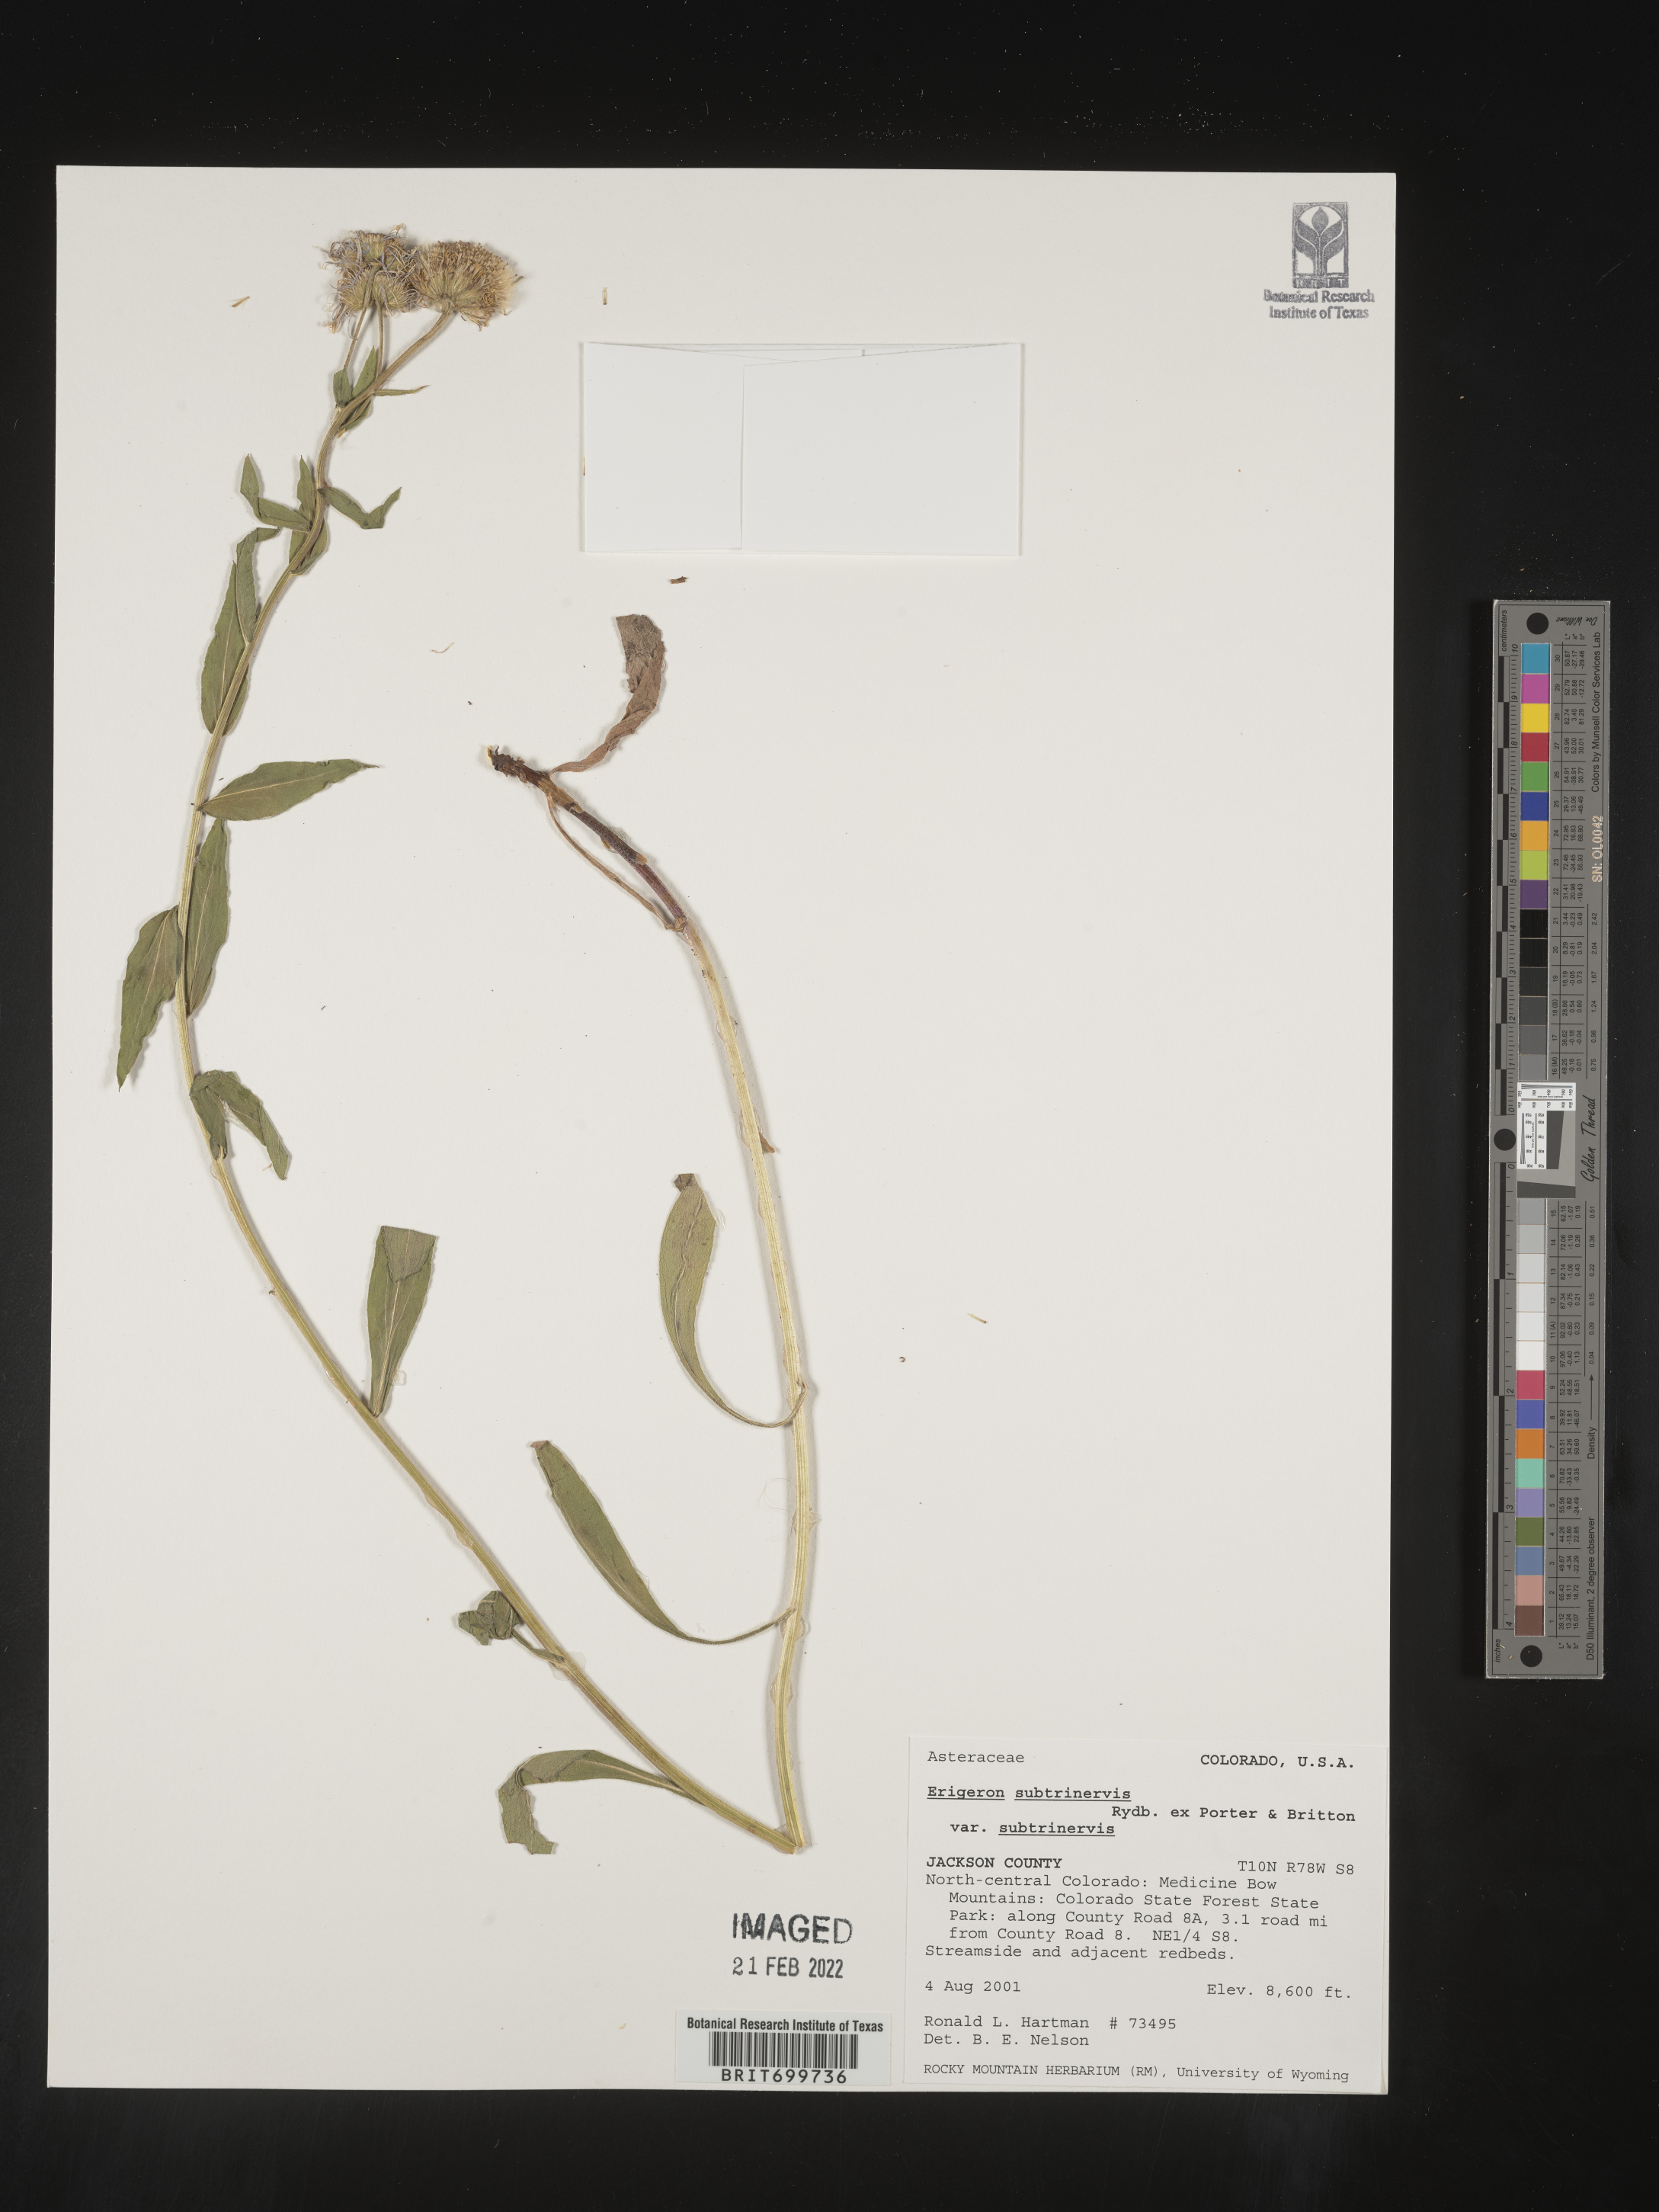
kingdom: Plantae
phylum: Tracheophyta
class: Magnoliopsida
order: Asterales
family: Asteraceae
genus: Erigeron
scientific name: Erigeron subtrinervis
